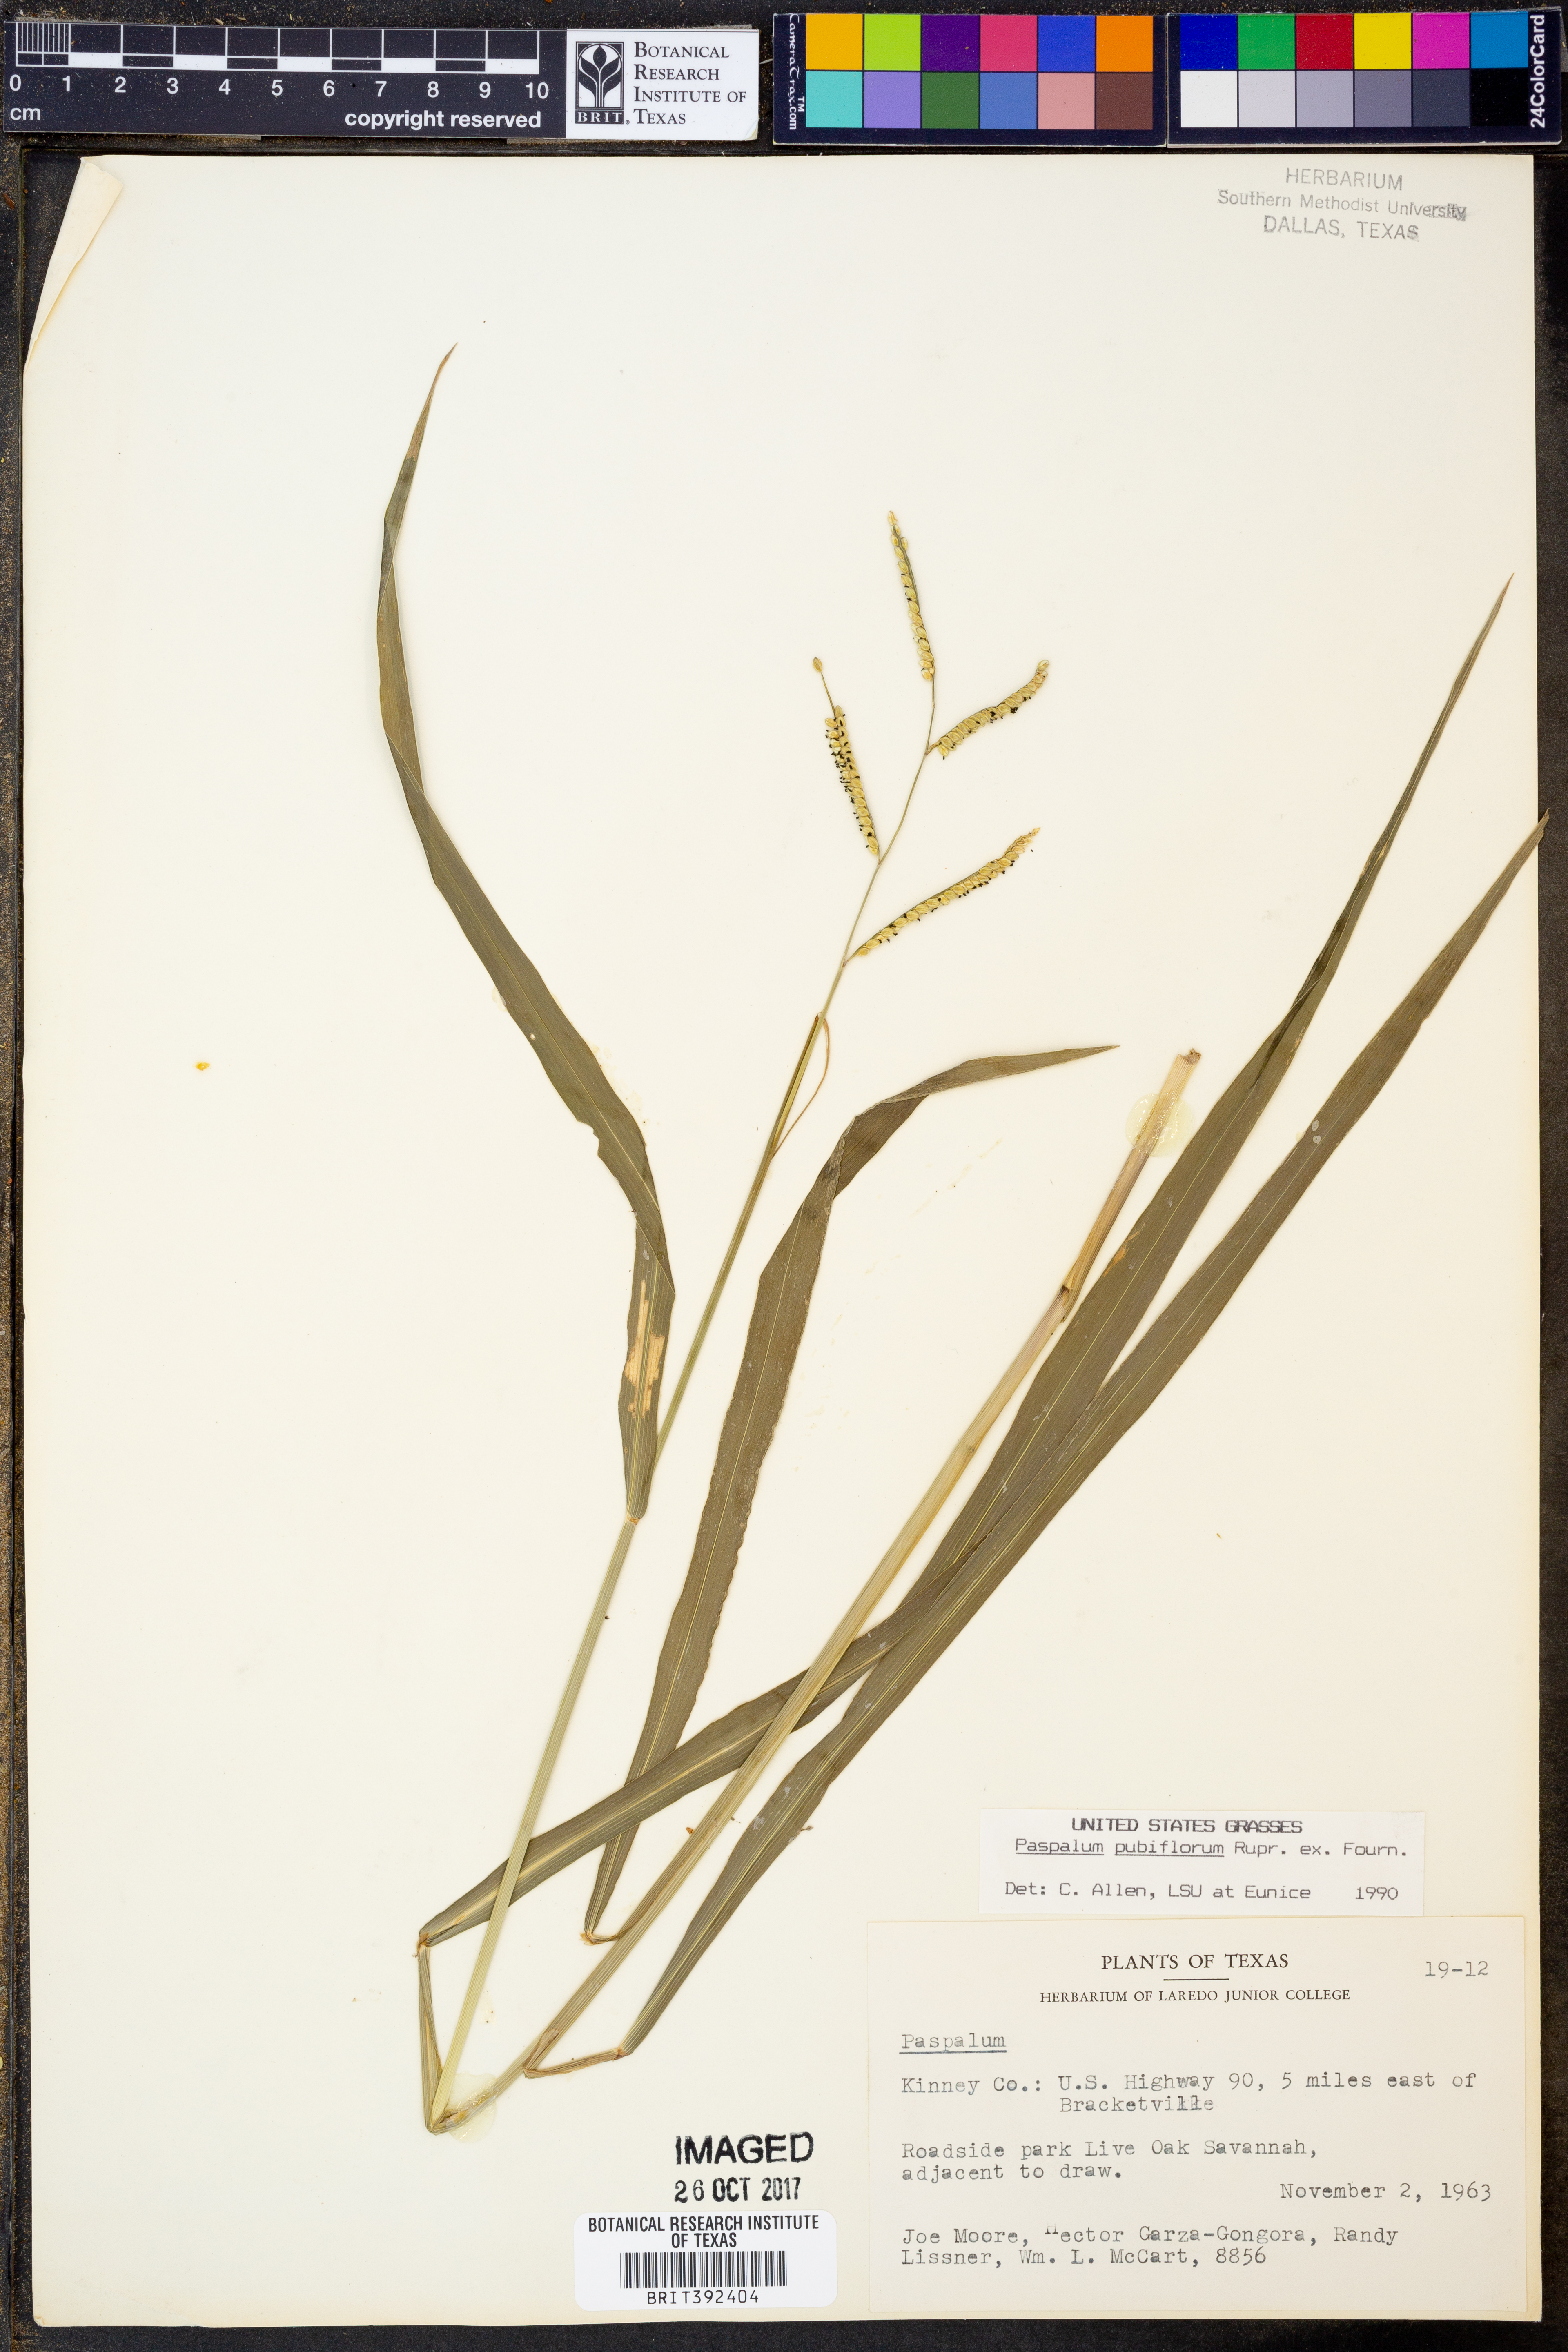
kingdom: Plantae
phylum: Tracheophyta
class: Liliopsida
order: Poales
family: Poaceae
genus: Paspalum
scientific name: Paspalum pubiflorum
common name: Hairy-seed paspalum
